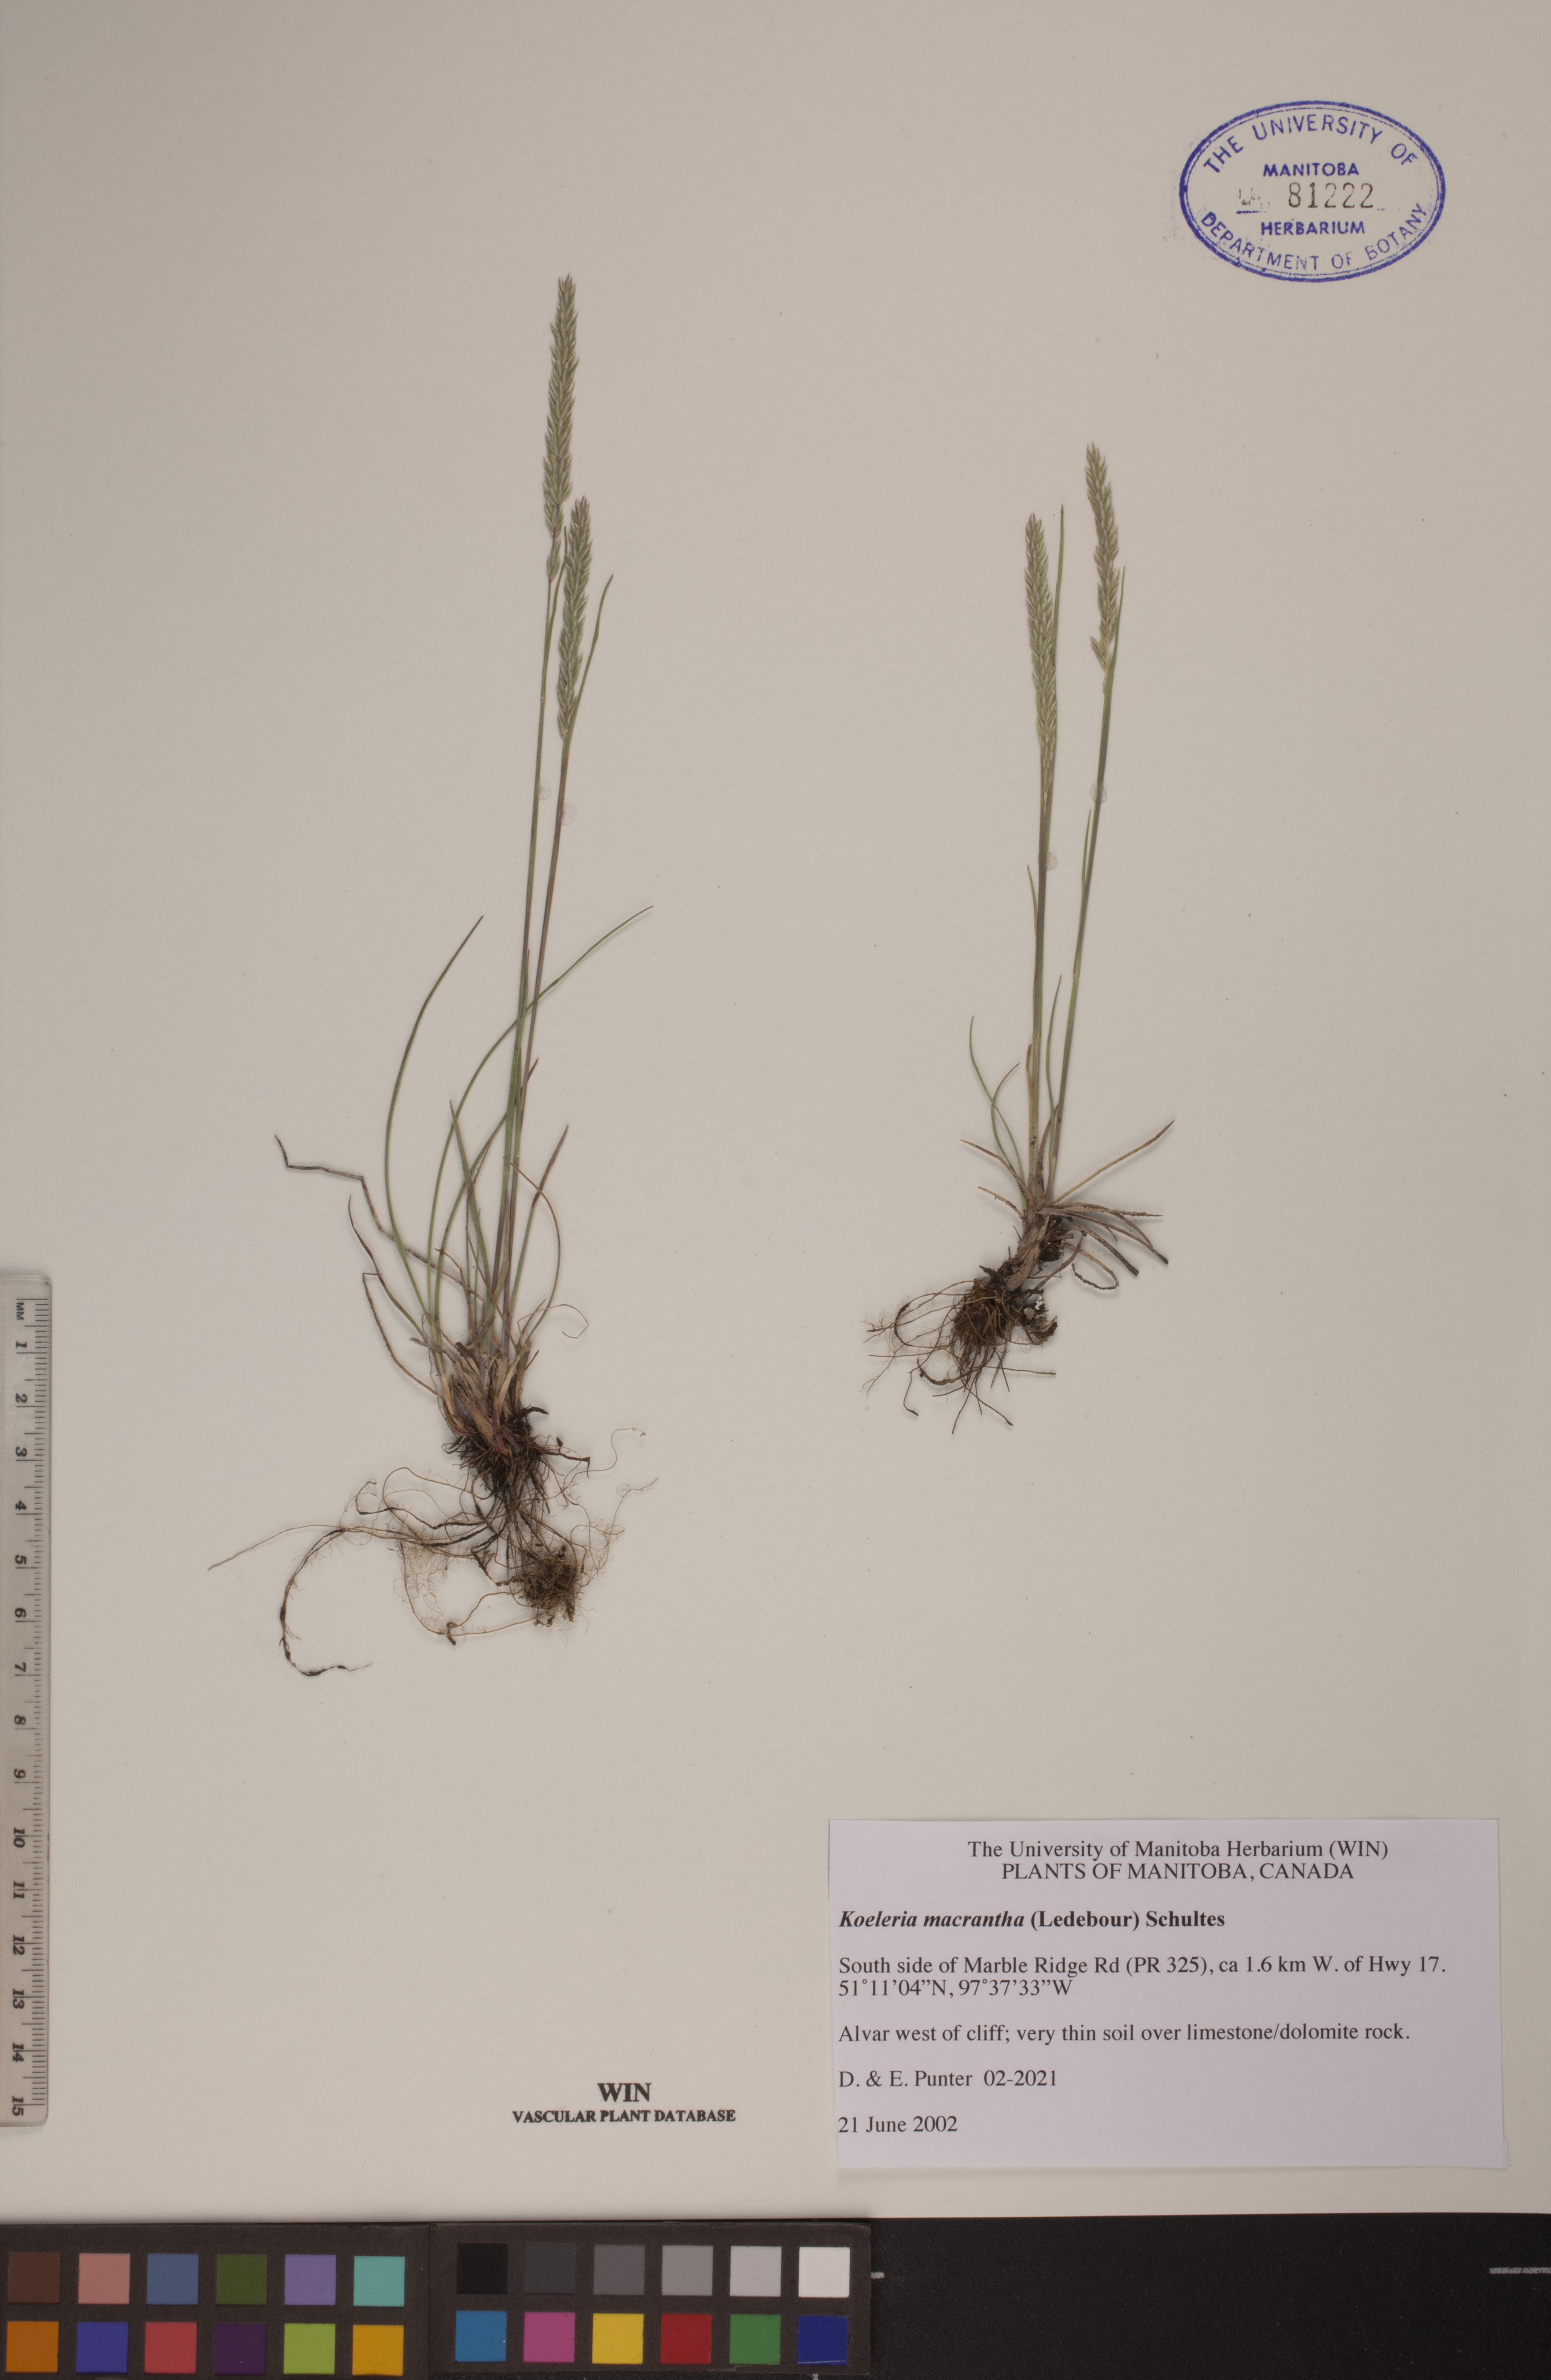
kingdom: Plantae
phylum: Tracheophyta
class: Liliopsida
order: Poales
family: Poaceae
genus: Koeleria
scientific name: Koeleria macrantha
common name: Crested hair-grass
